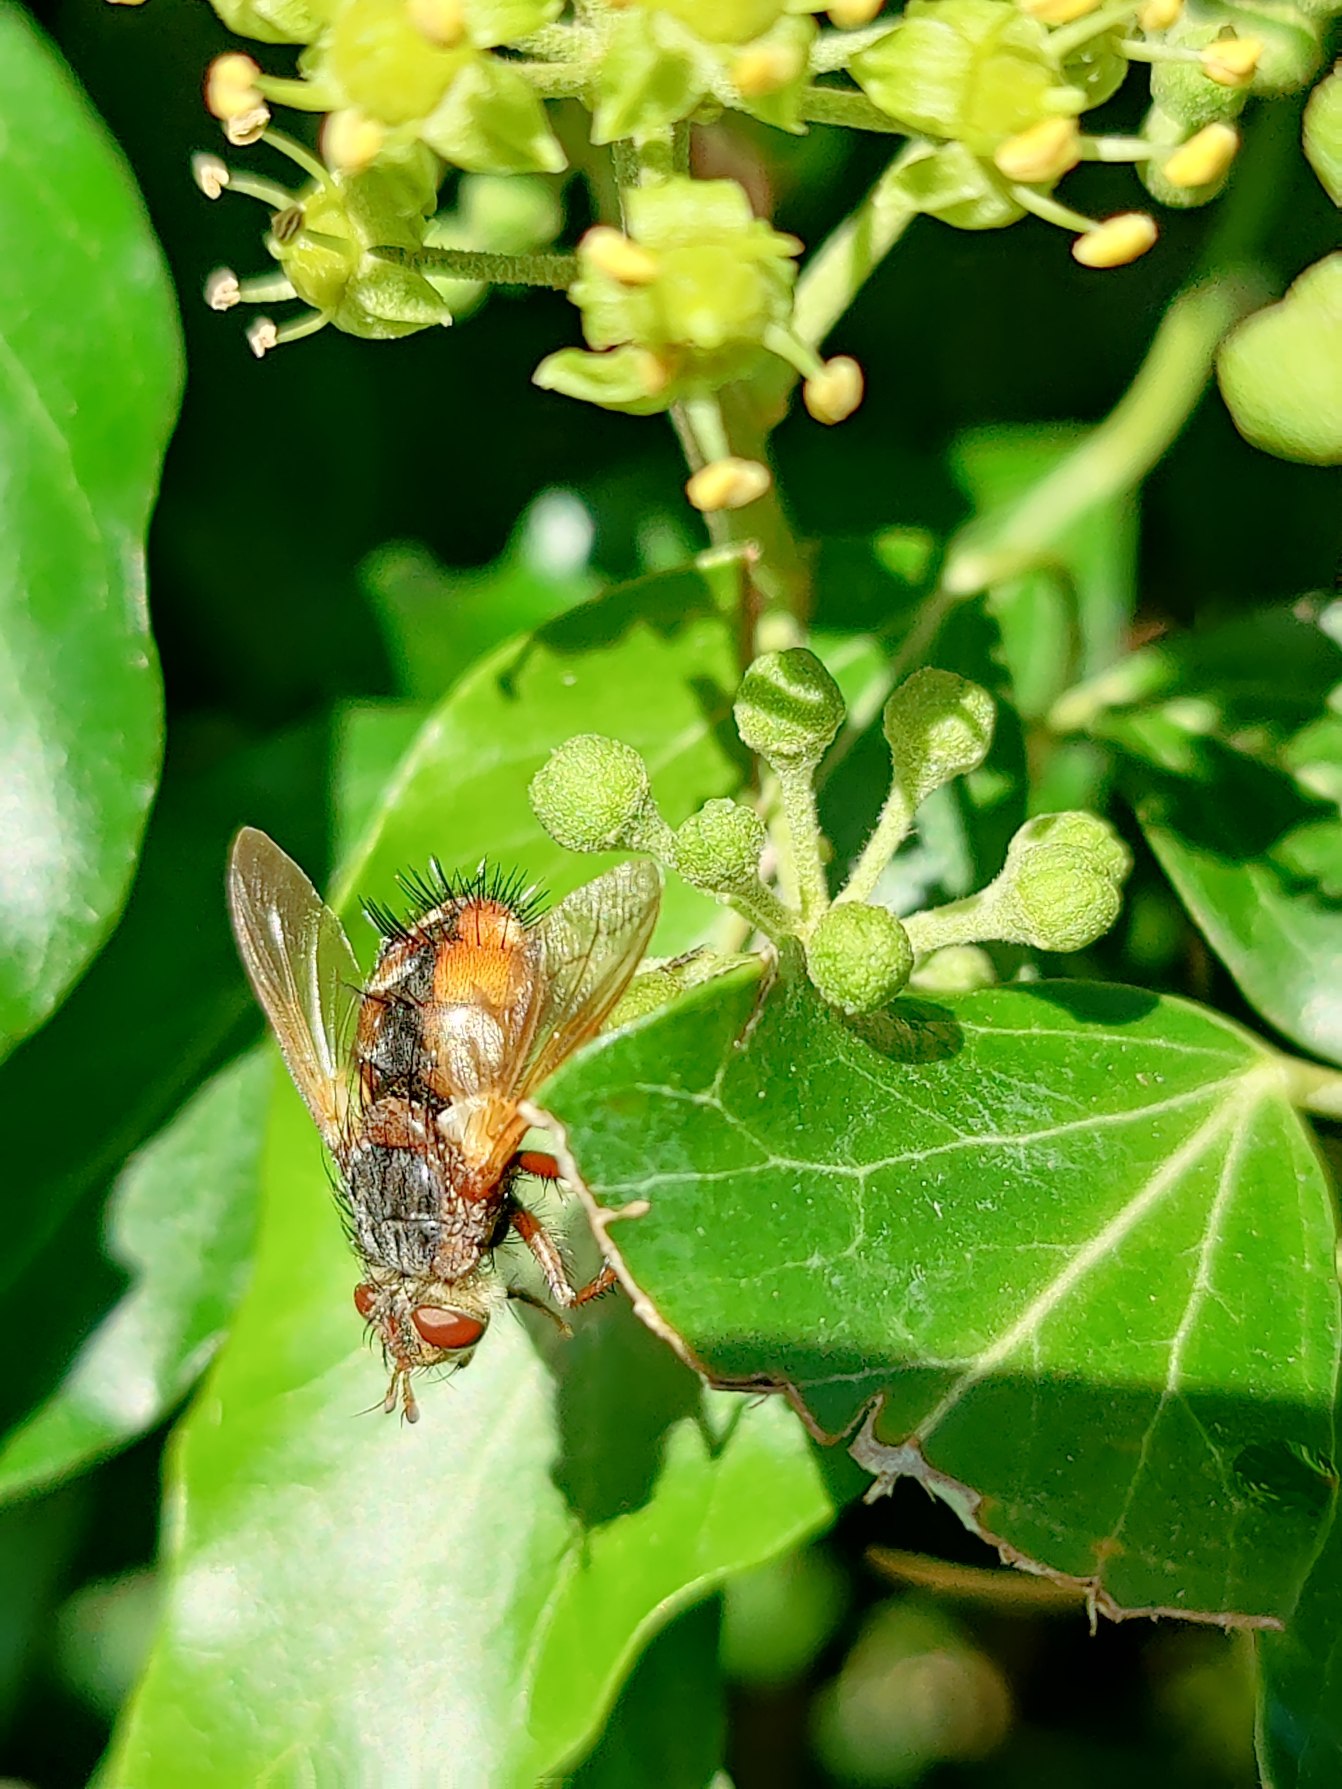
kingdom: Animalia
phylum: Arthropoda
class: Insecta
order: Diptera
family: Tachinidae
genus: Tachina
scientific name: Tachina fera
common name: Mellemfluen oskar
